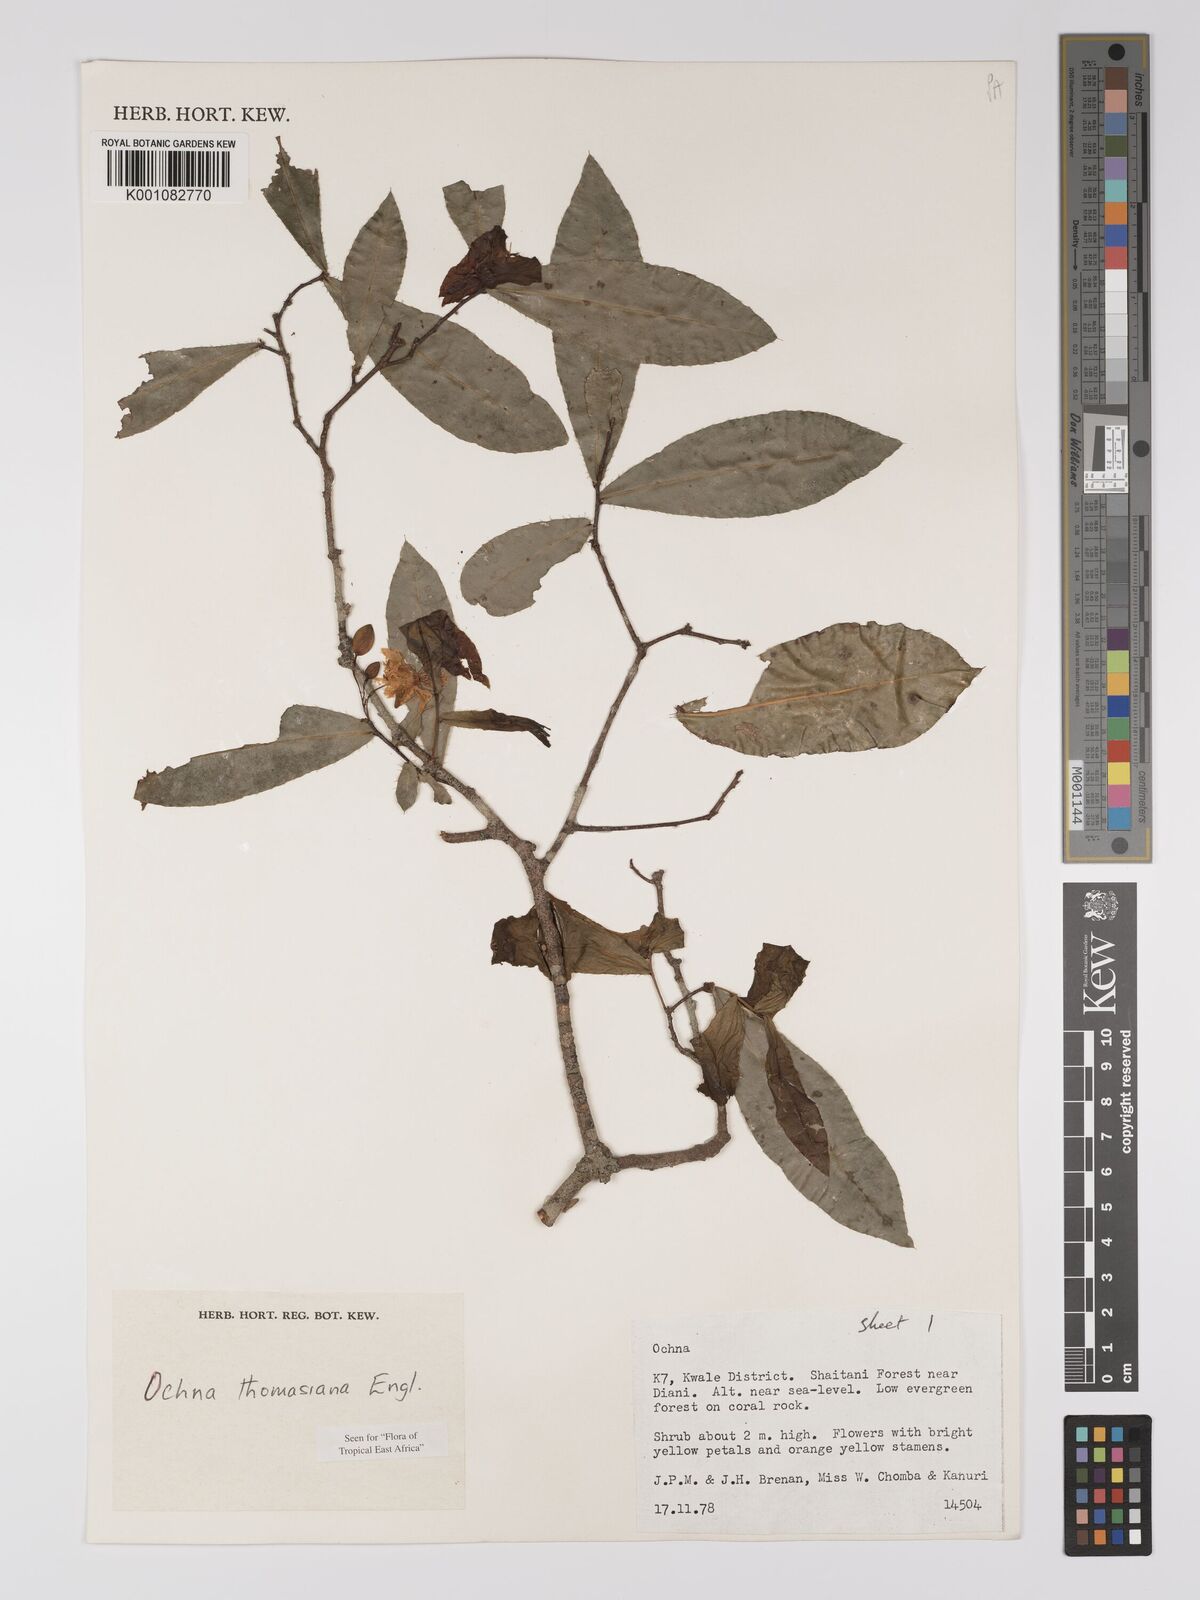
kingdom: Plantae
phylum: Tracheophyta
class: Magnoliopsida
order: Malpighiales
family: Ochnaceae
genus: Ochna
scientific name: Ochna thomasiana
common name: Thomas' bird's-eye bush
